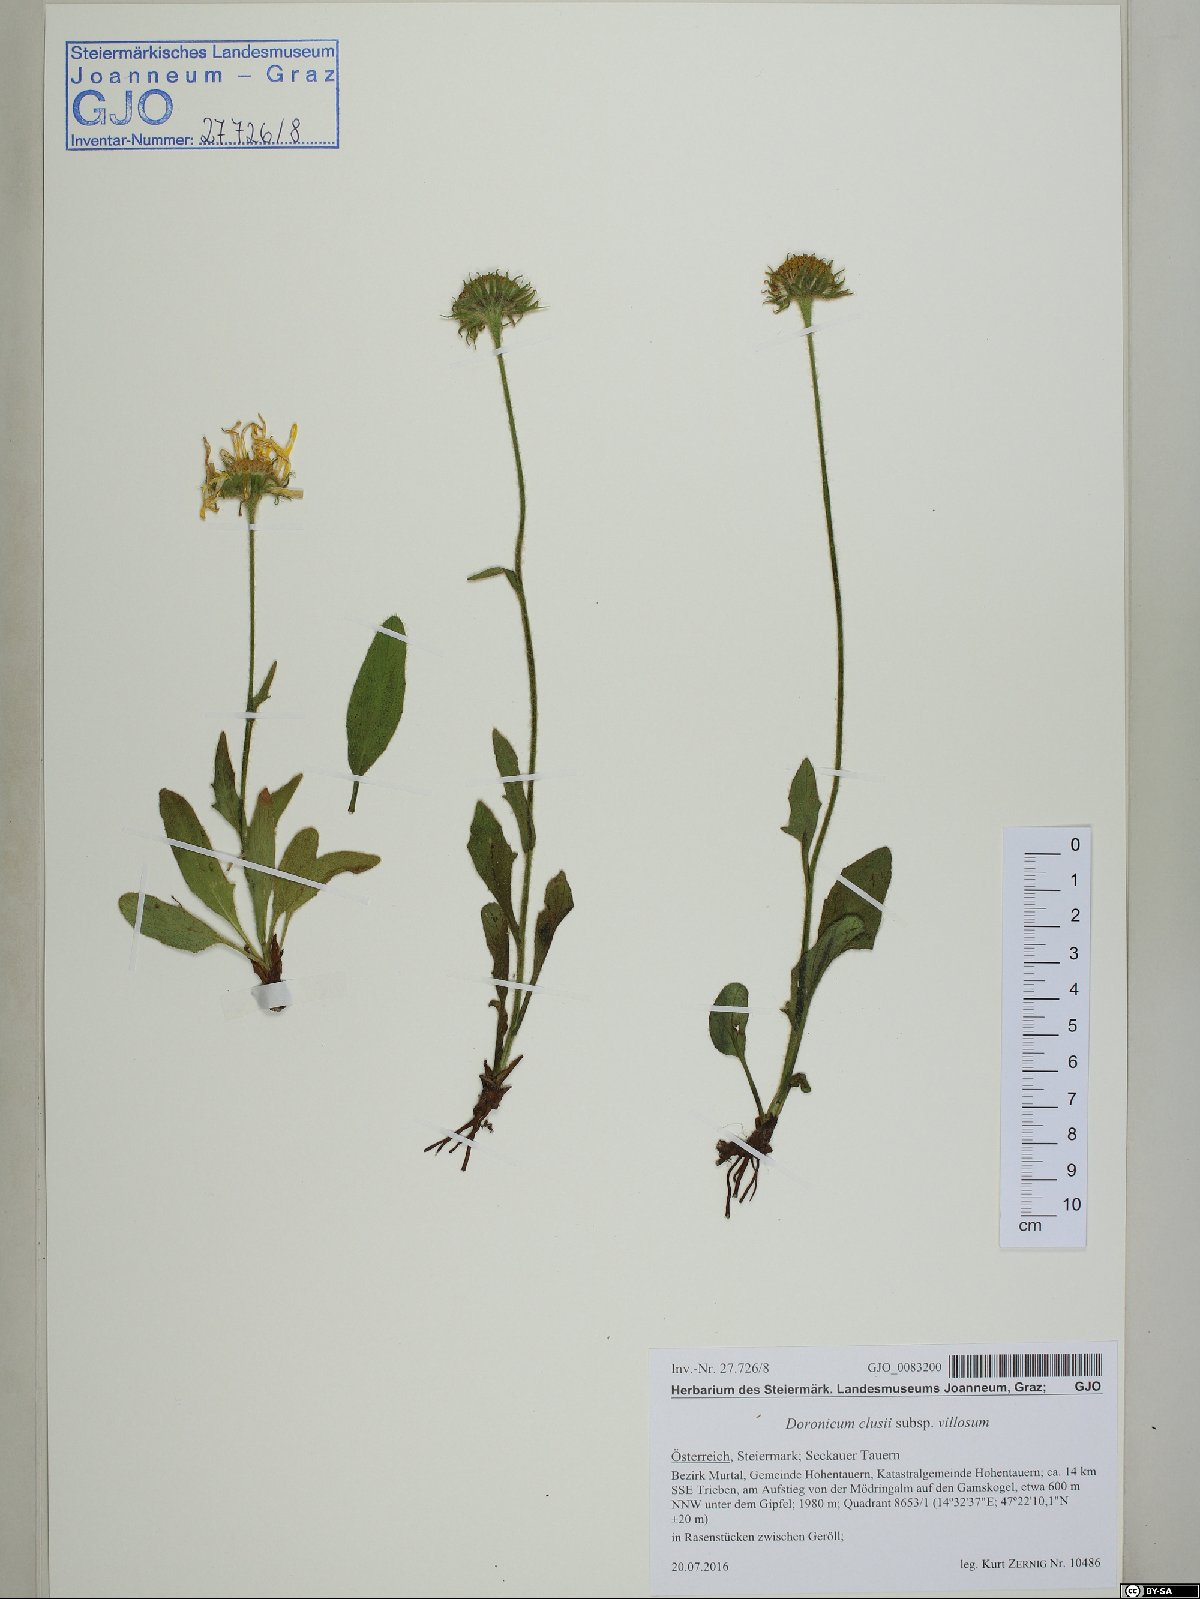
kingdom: Plantae
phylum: Tracheophyta
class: Magnoliopsida
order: Asterales
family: Asteraceae
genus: Doronicum
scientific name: Doronicum clusii
